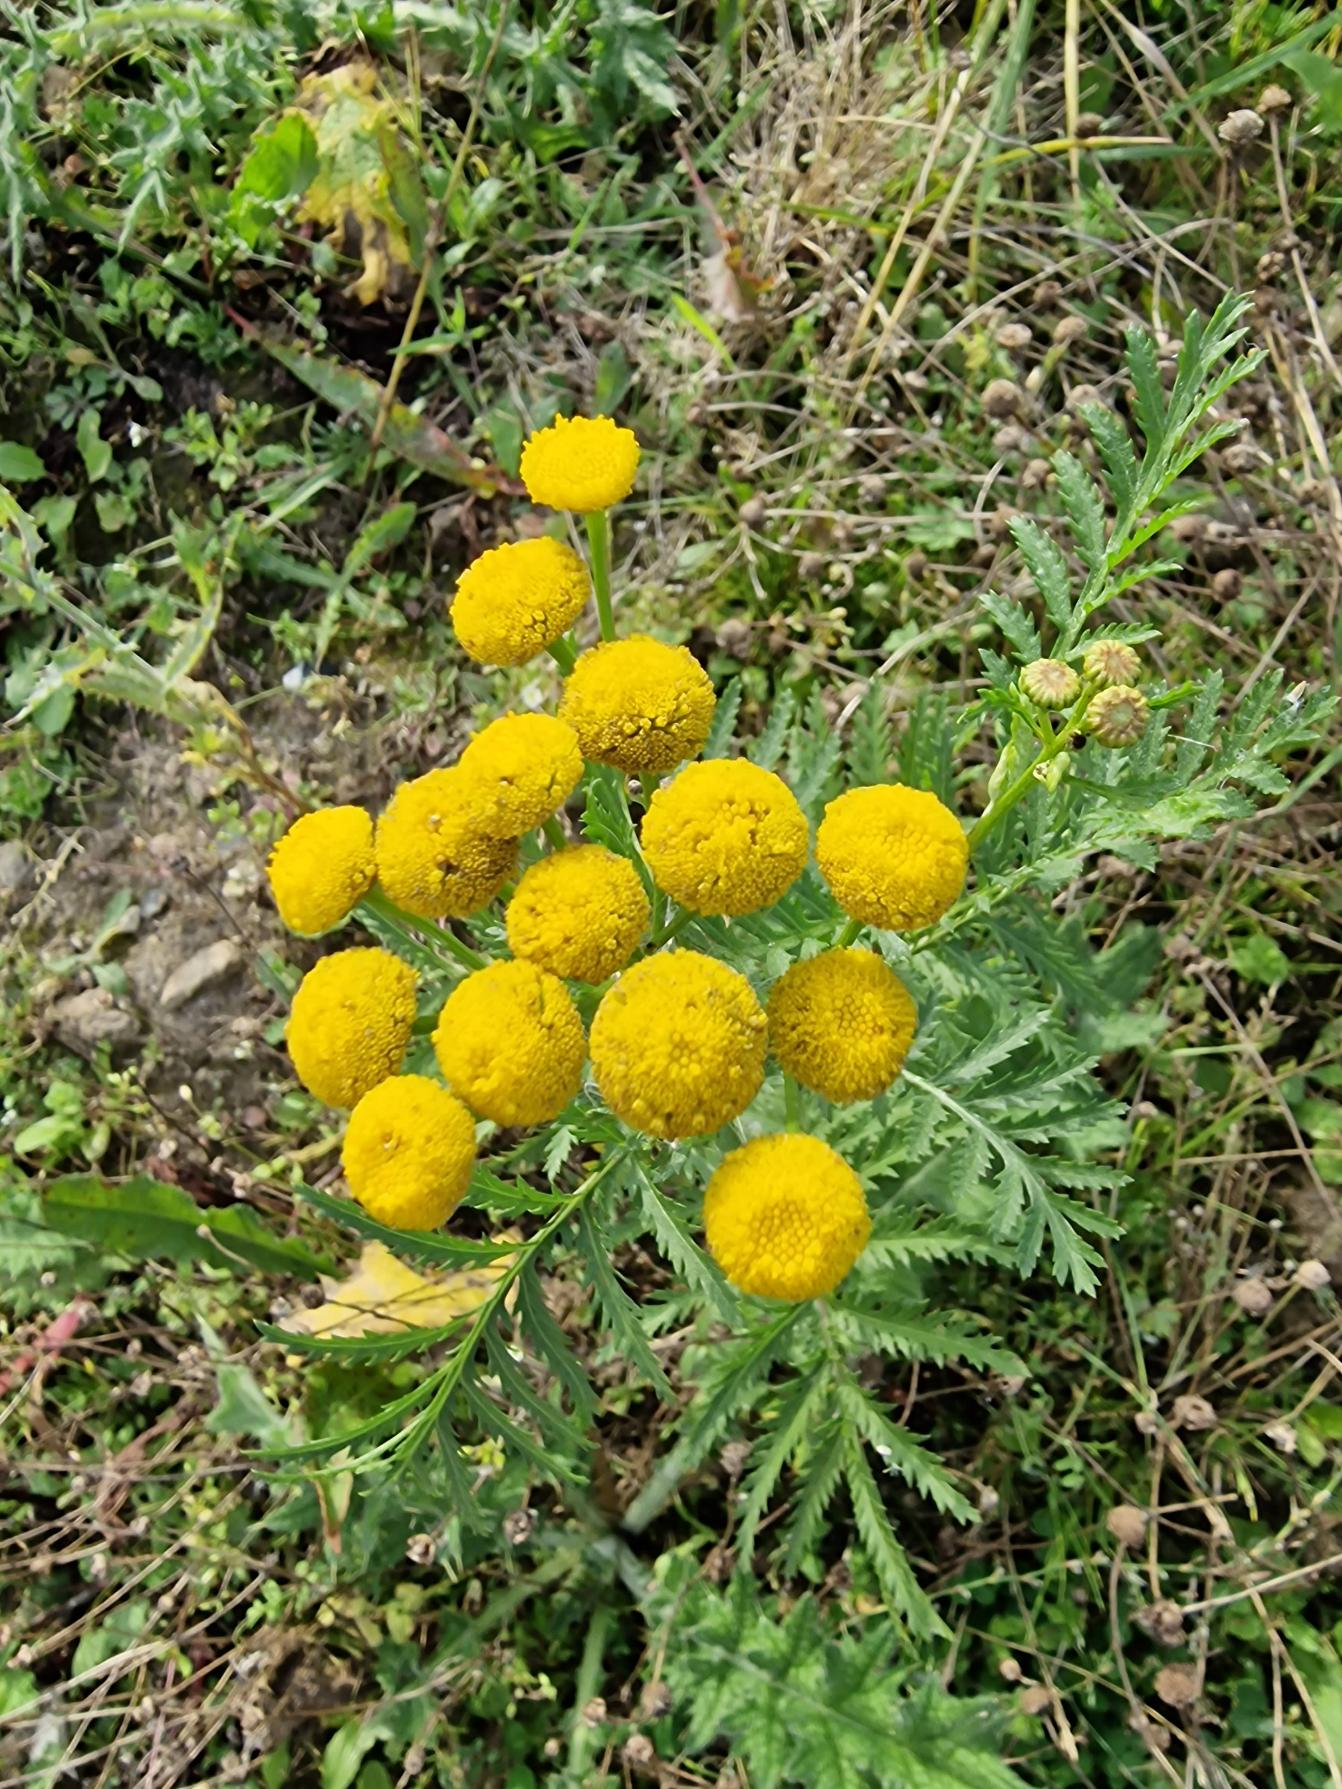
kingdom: Plantae
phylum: Tracheophyta
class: Magnoliopsida
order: Asterales
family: Asteraceae
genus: Tanacetum
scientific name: Tanacetum vulgare
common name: Rejnfan
